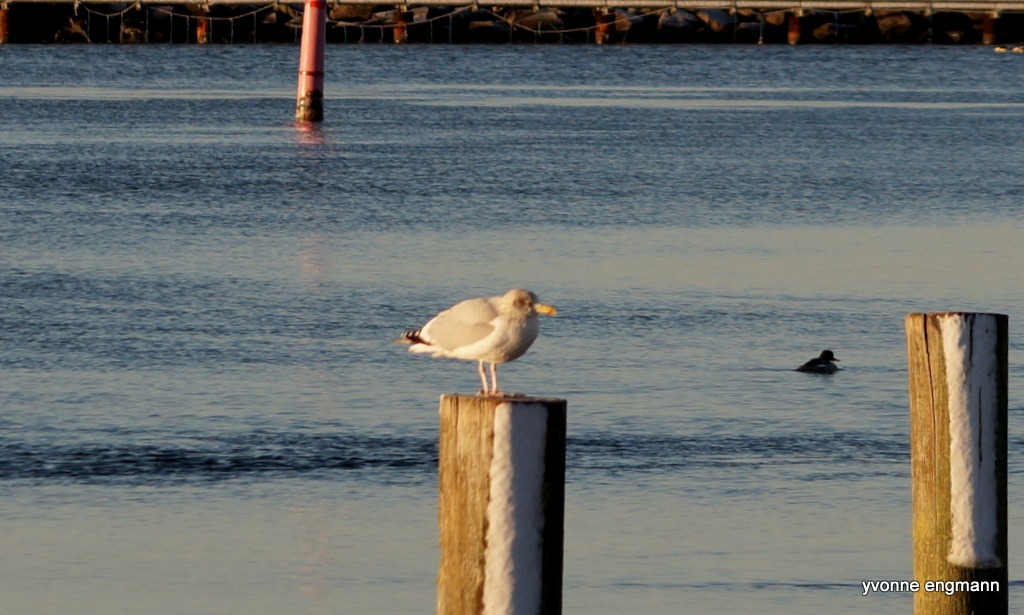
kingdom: Animalia
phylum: Chordata
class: Aves
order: Charadriiformes
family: Laridae
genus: Larus
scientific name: Larus argentatus
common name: Sølvmåge
